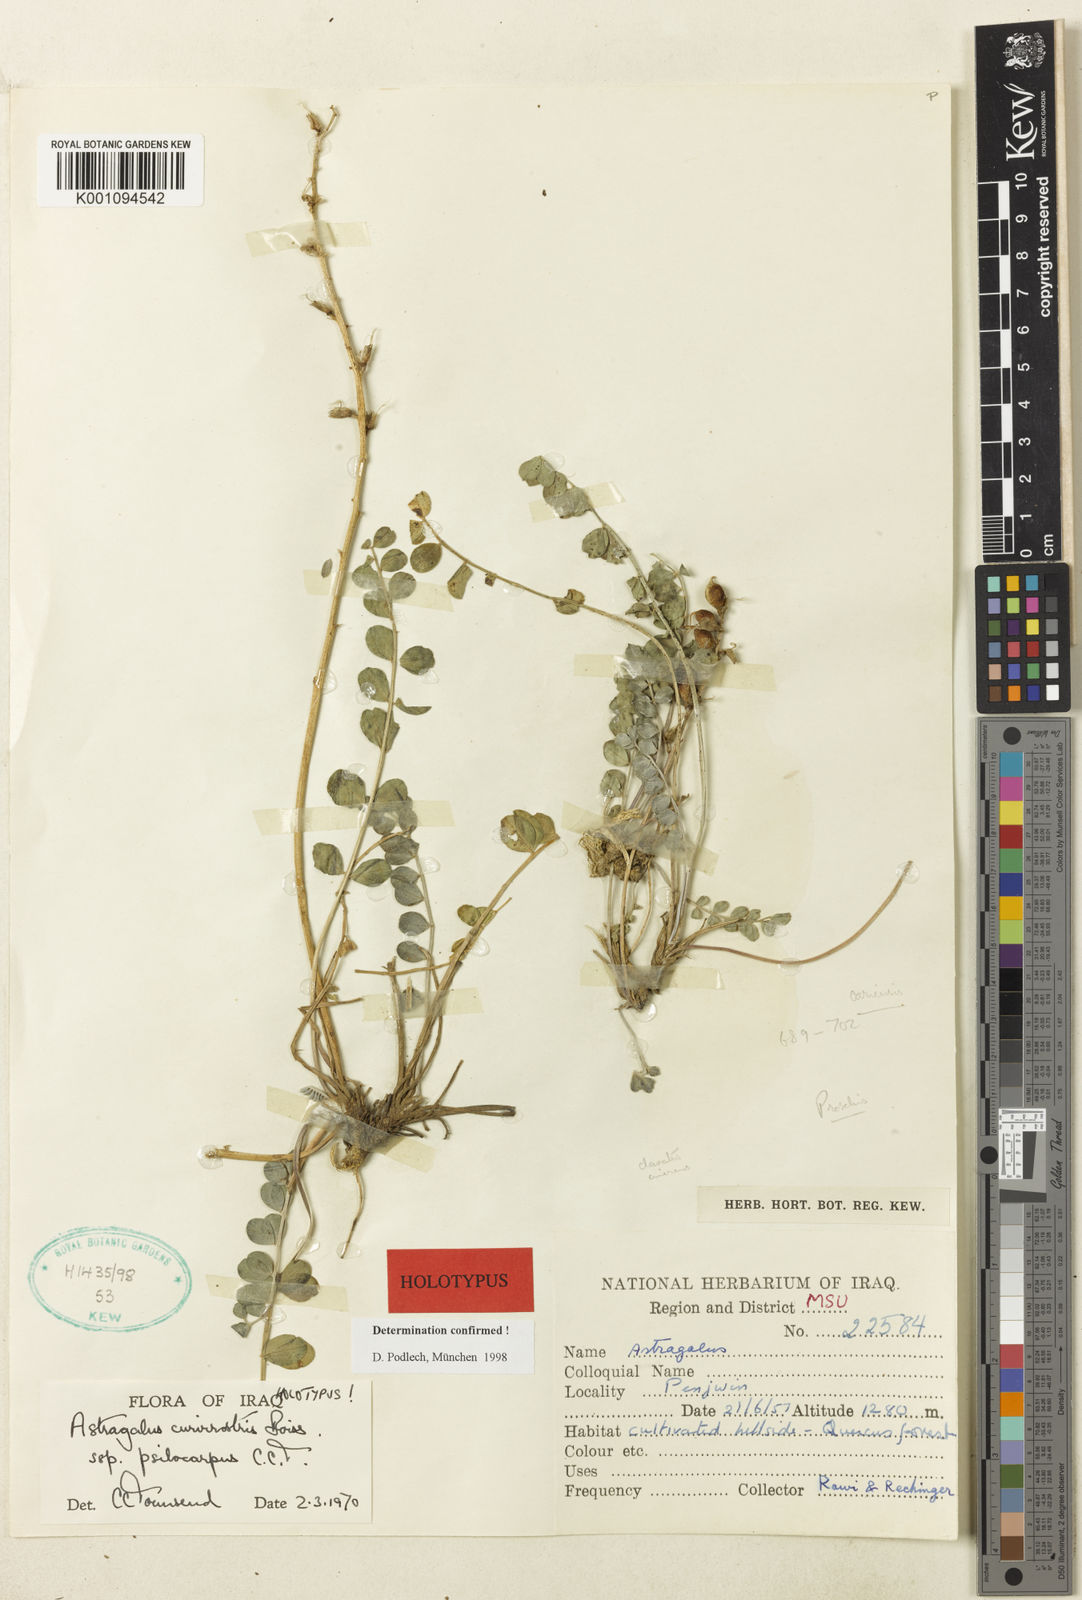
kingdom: Plantae
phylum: Tracheophyta
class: Magnoliopsida
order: Fabales
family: Fabaceae
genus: Astragalus
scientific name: Astragalus
